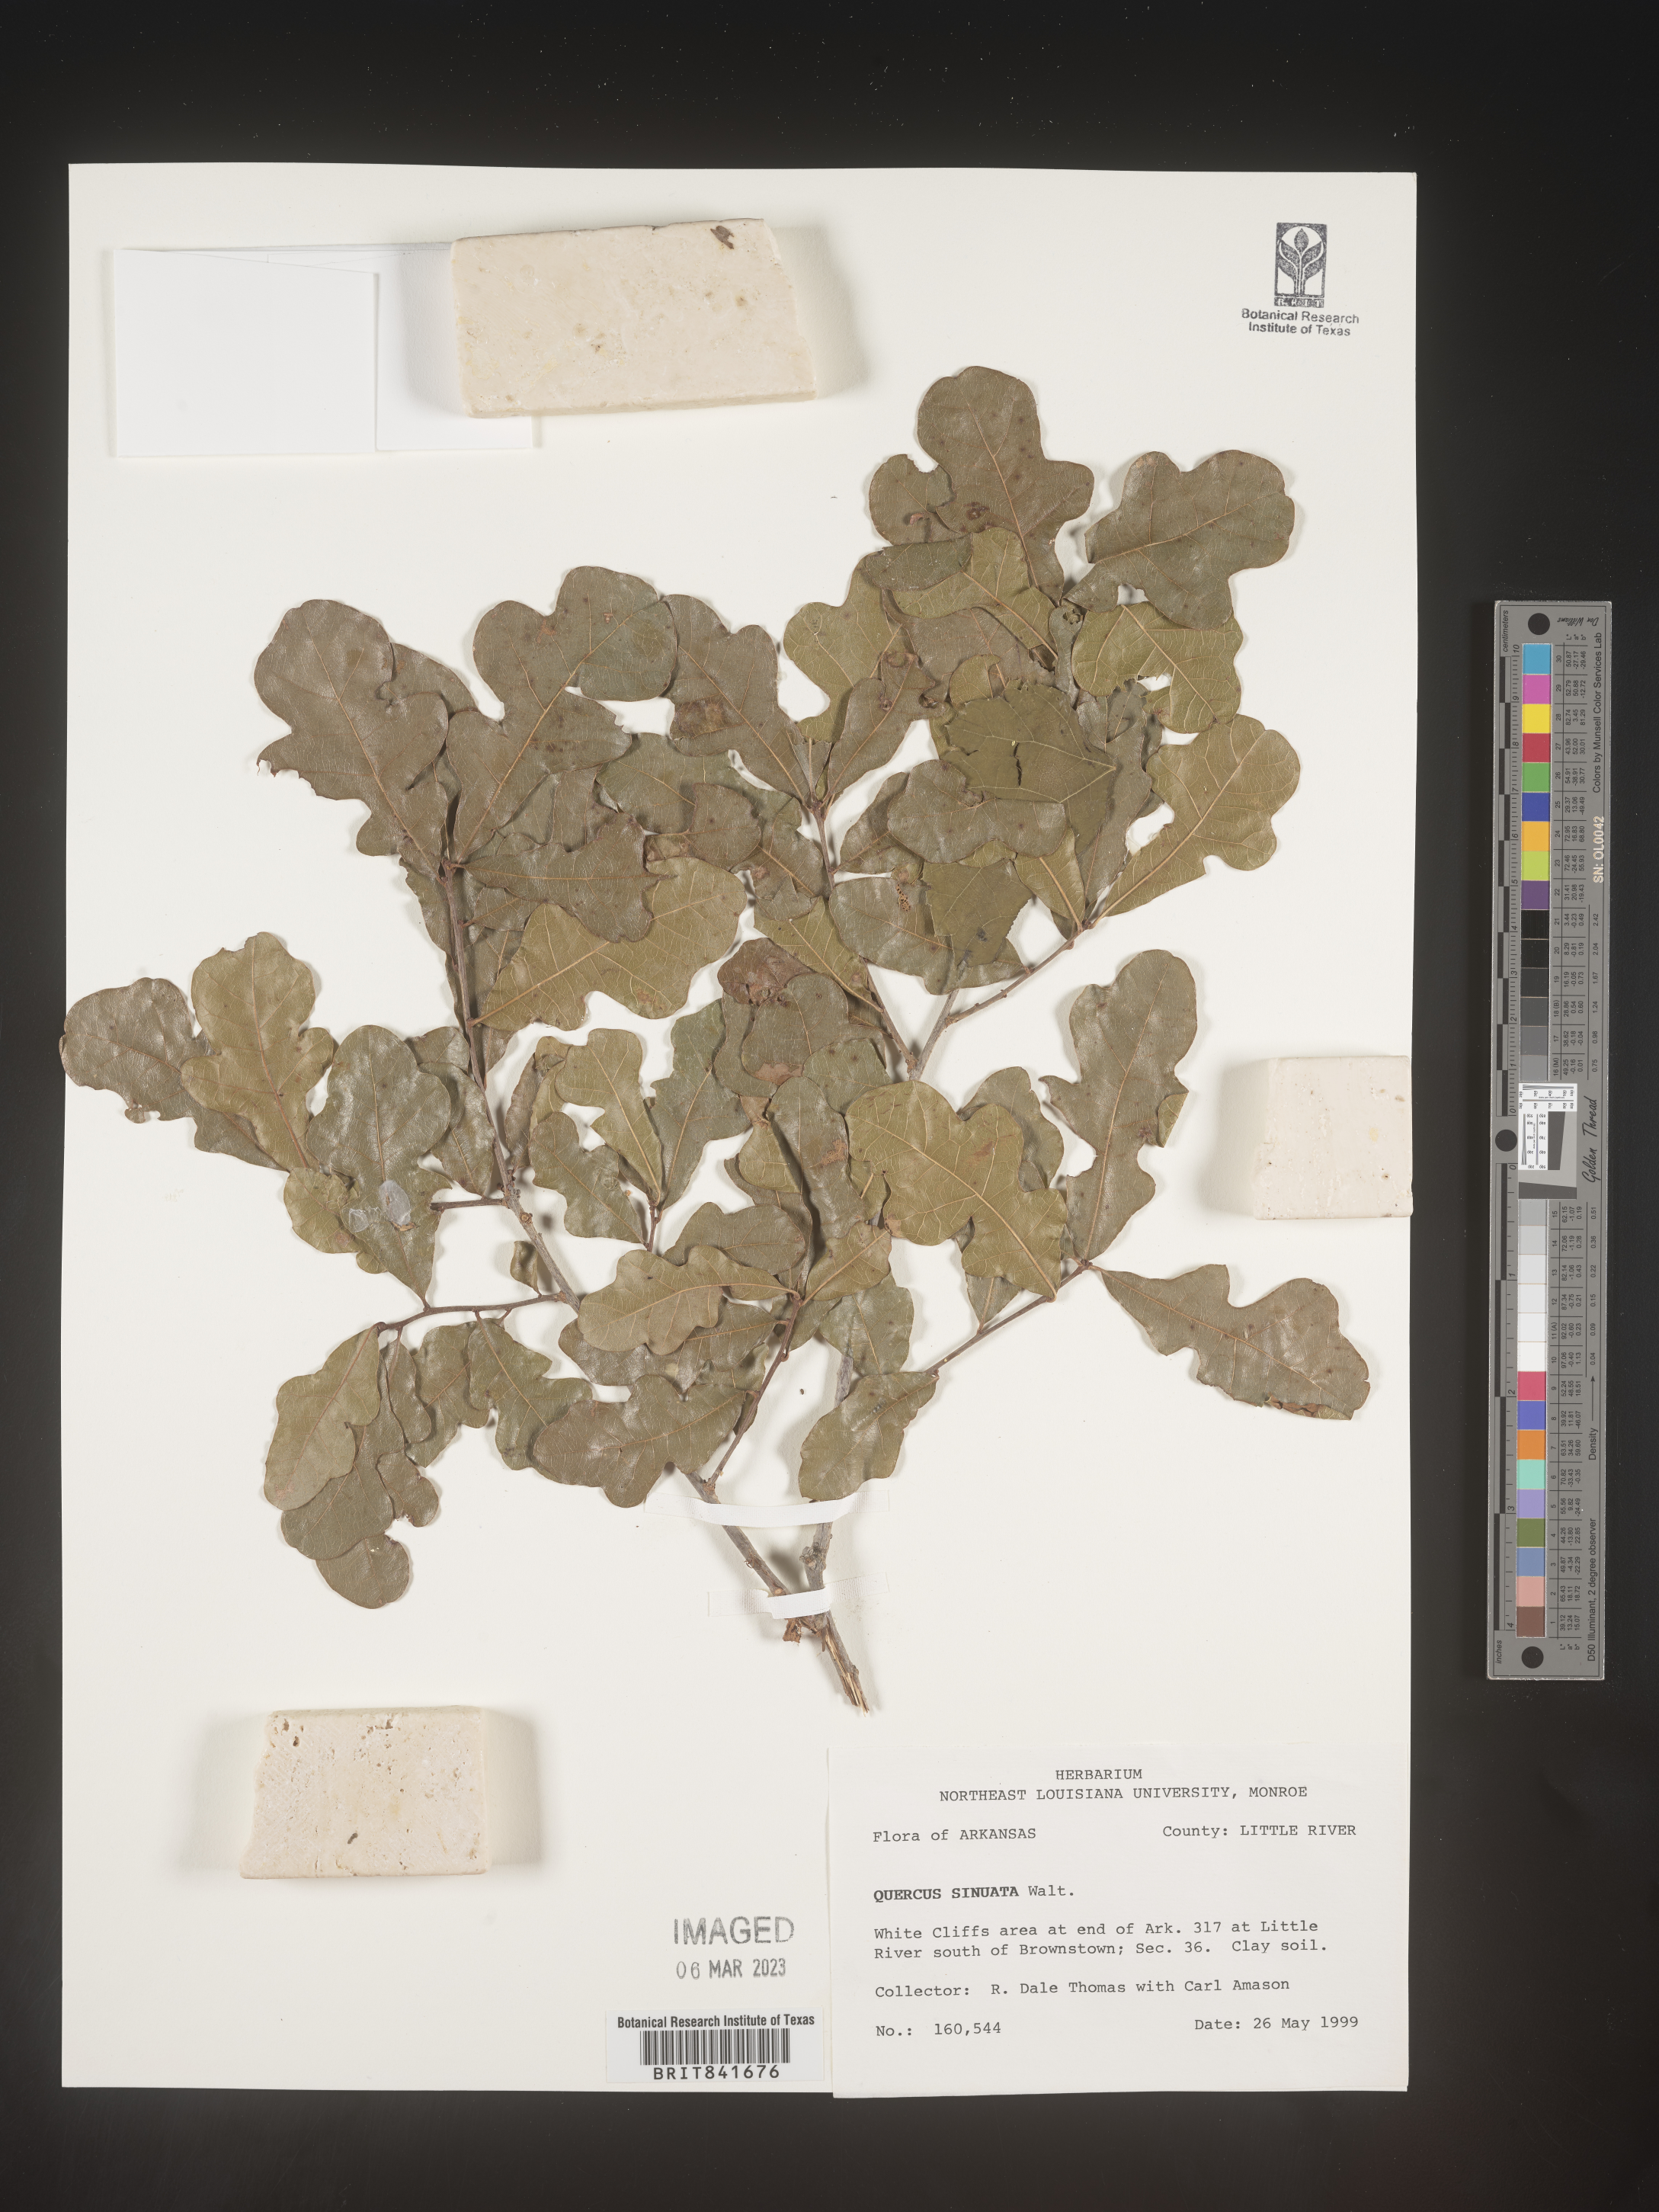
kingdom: Plantae
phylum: Tracheophyta
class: Magnoliopsida
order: Fagales
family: Fagaceae
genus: Quercus
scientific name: Quercus
